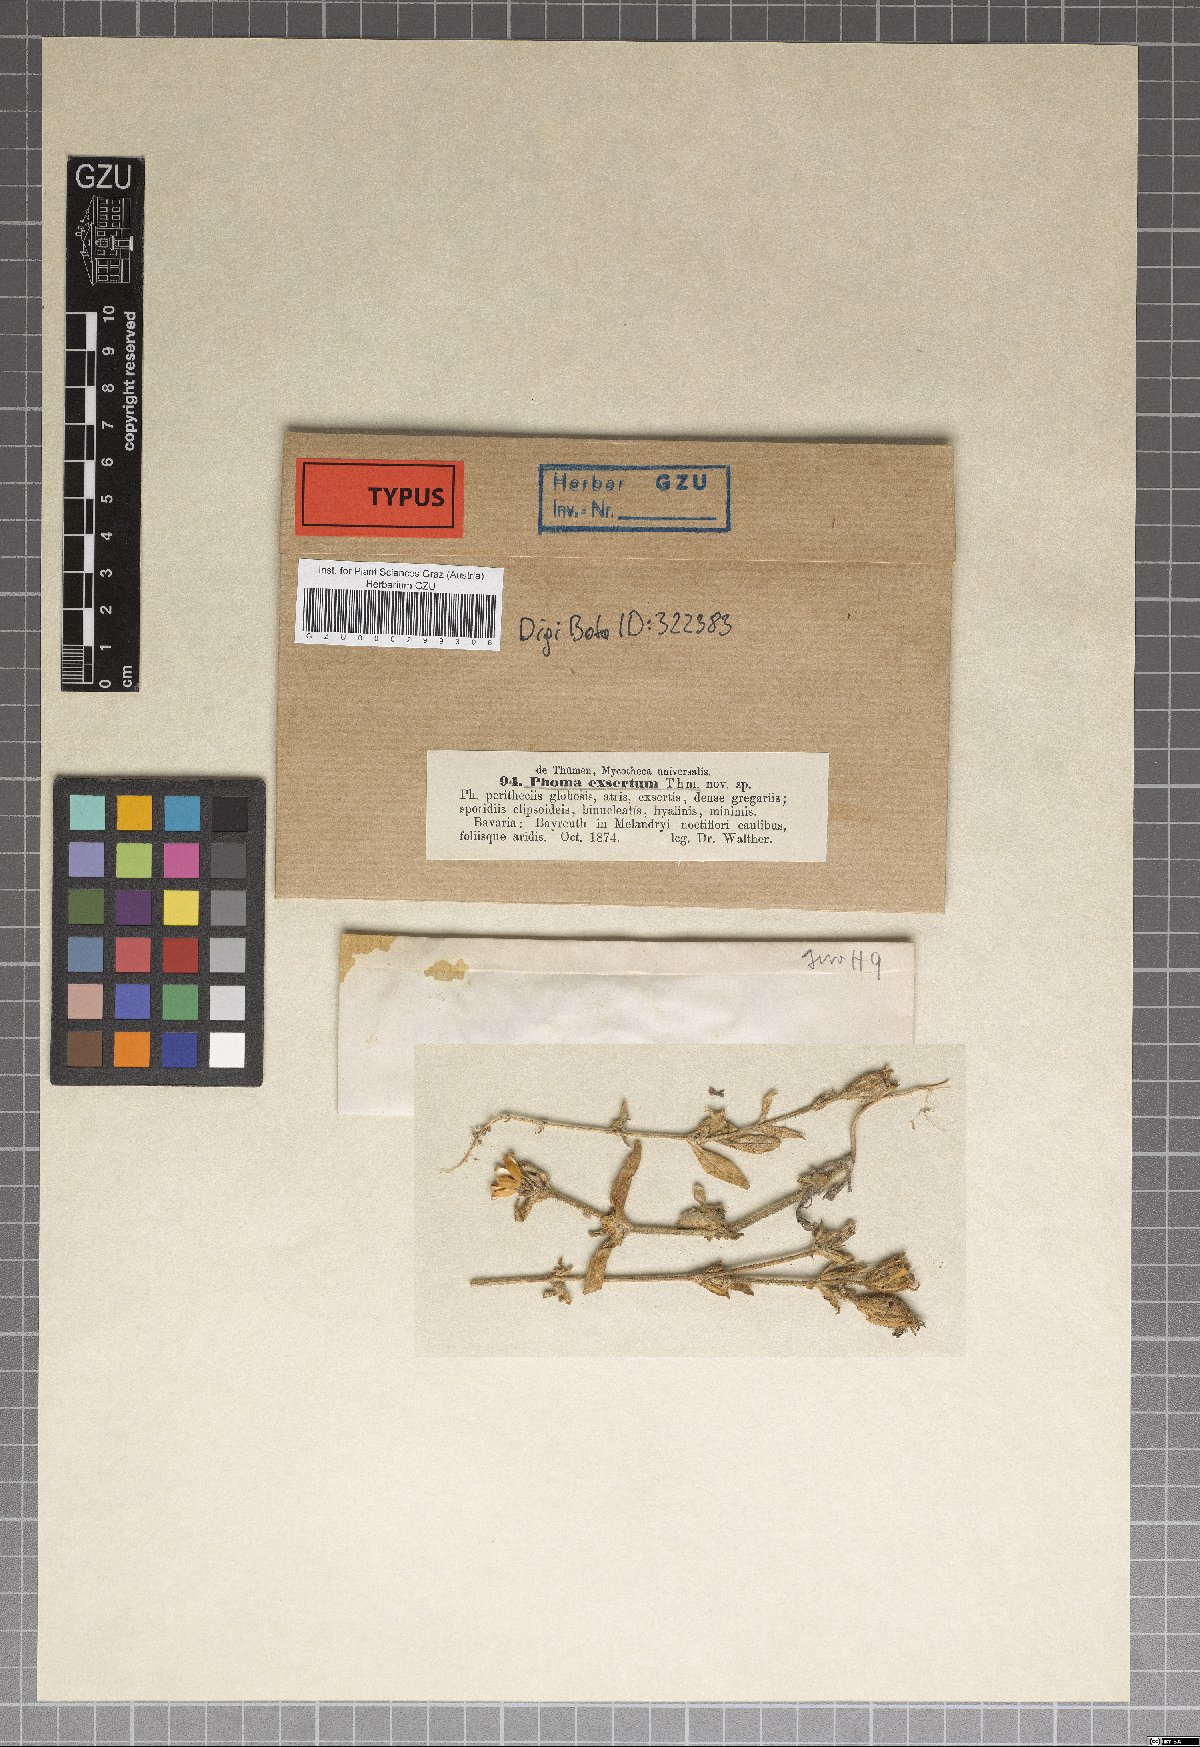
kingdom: Fungi
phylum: Ascomycota
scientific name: Ascomycota
